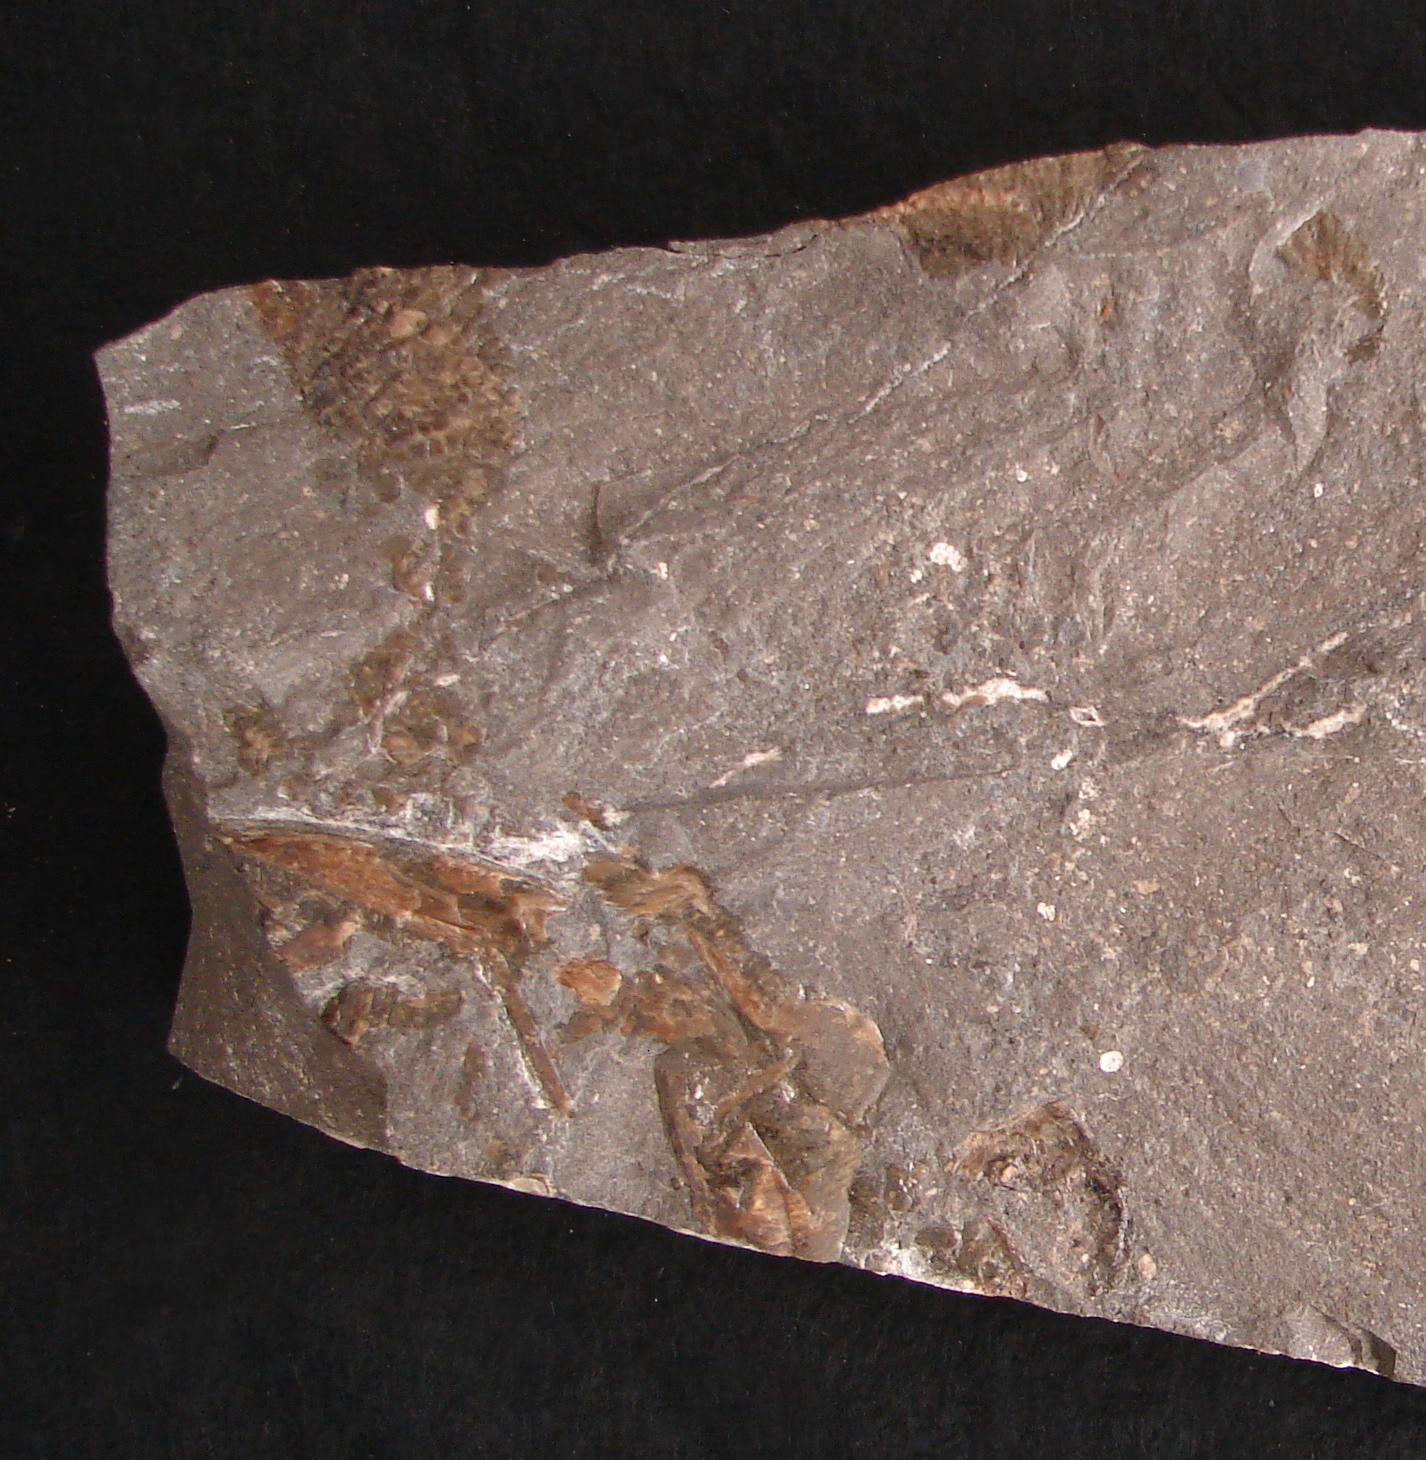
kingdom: Animalia
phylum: Chordata
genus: Haasichthys
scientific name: Haasichthys michelsi
